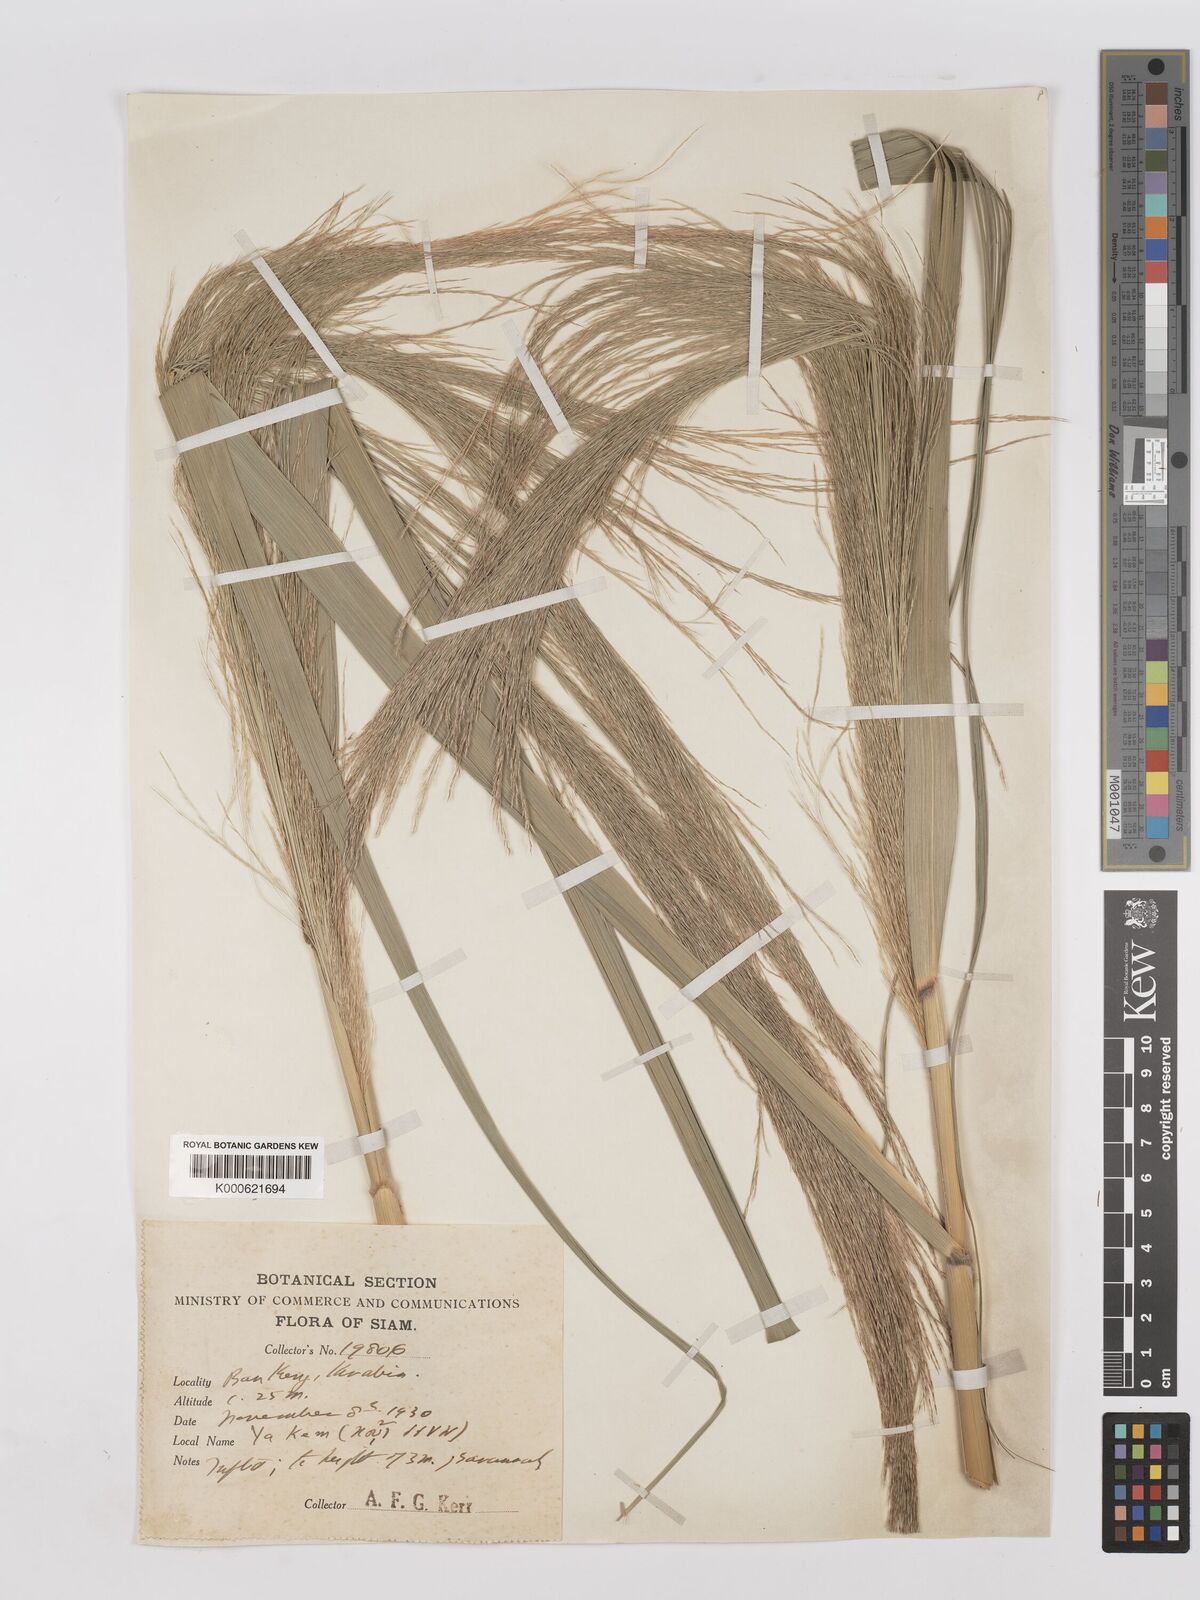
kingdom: Plantae
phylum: Tracheophyta
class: Liliopsida
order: Poales
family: Poaceae
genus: Phragmites
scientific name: Phragmites karka
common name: Tropical reed
